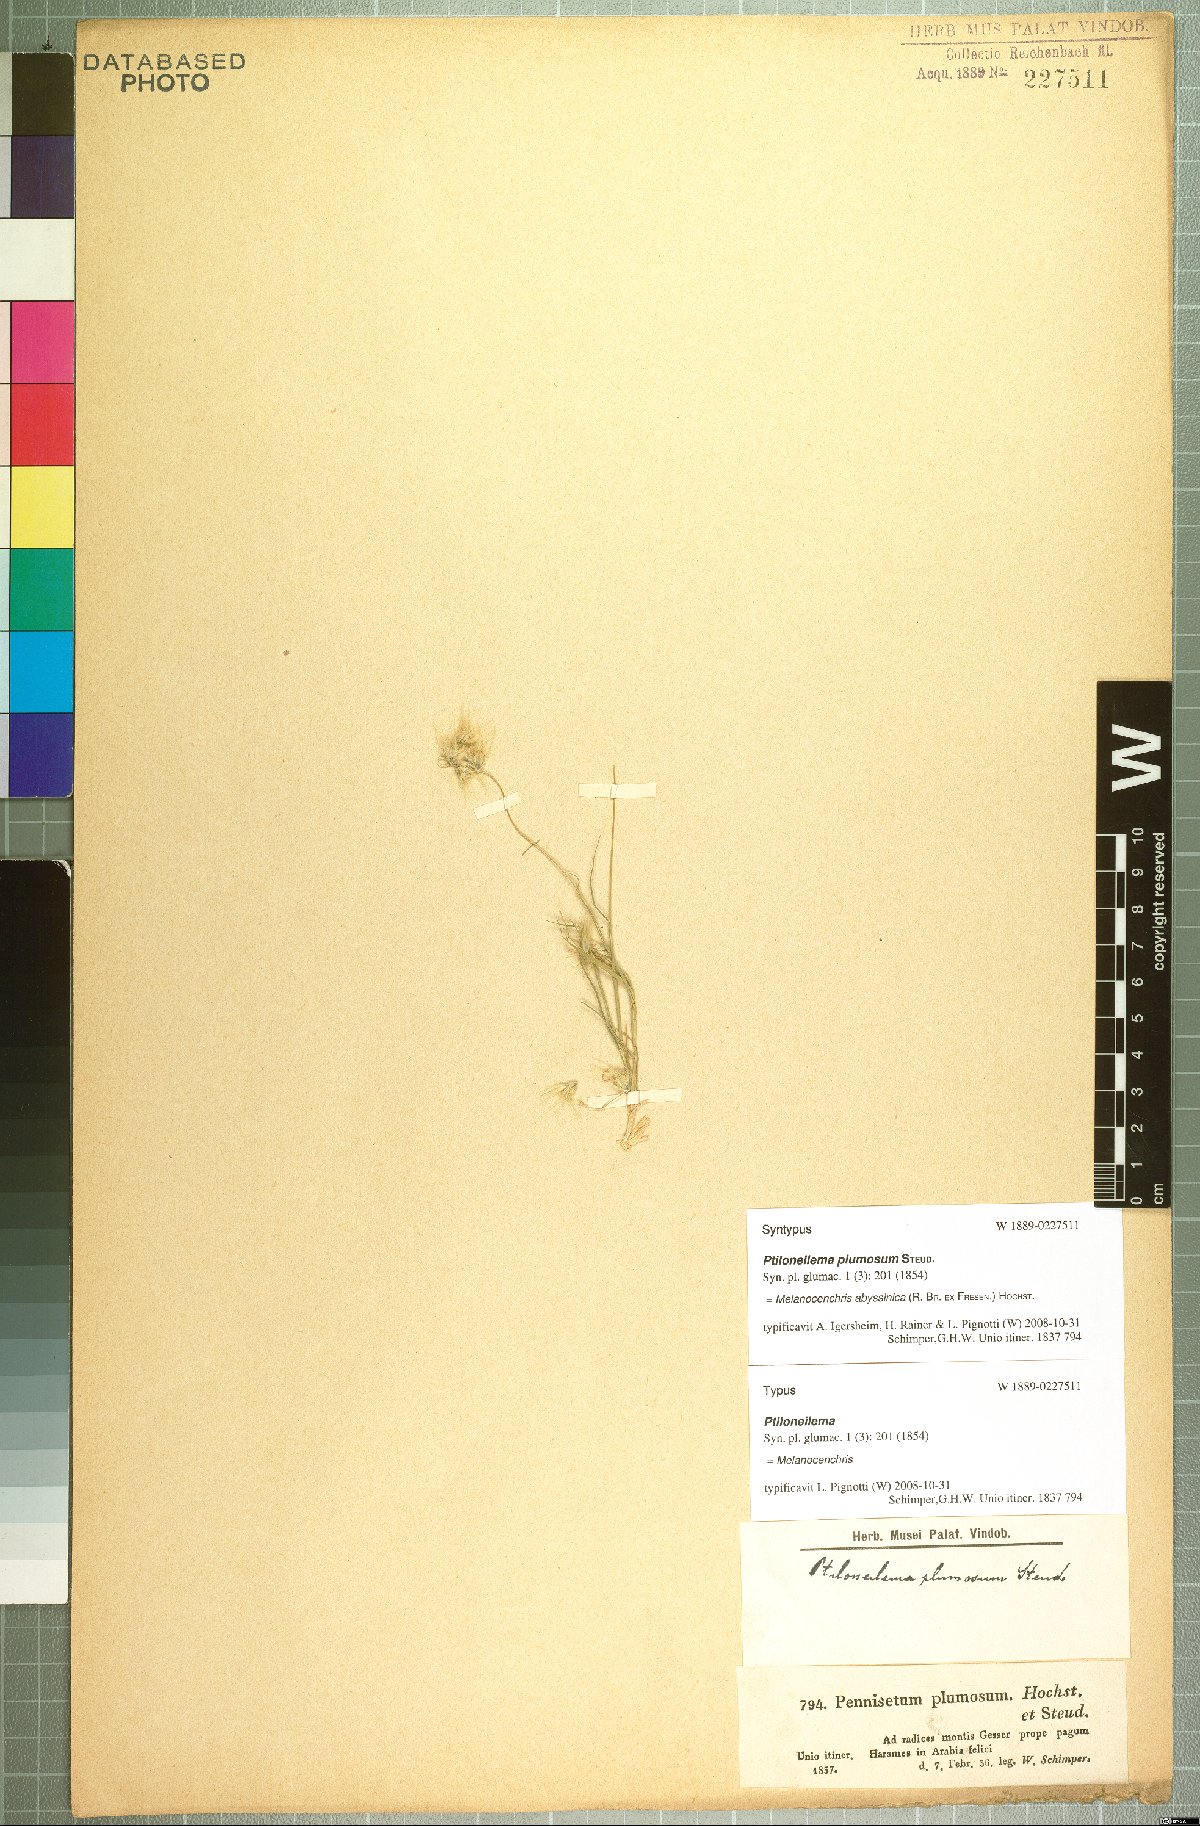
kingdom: Plantae
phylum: Tracheophyta
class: Liliopsida
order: Poales
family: Poaceae
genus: Melanocenchris
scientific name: Melanocenchris abyssinica
